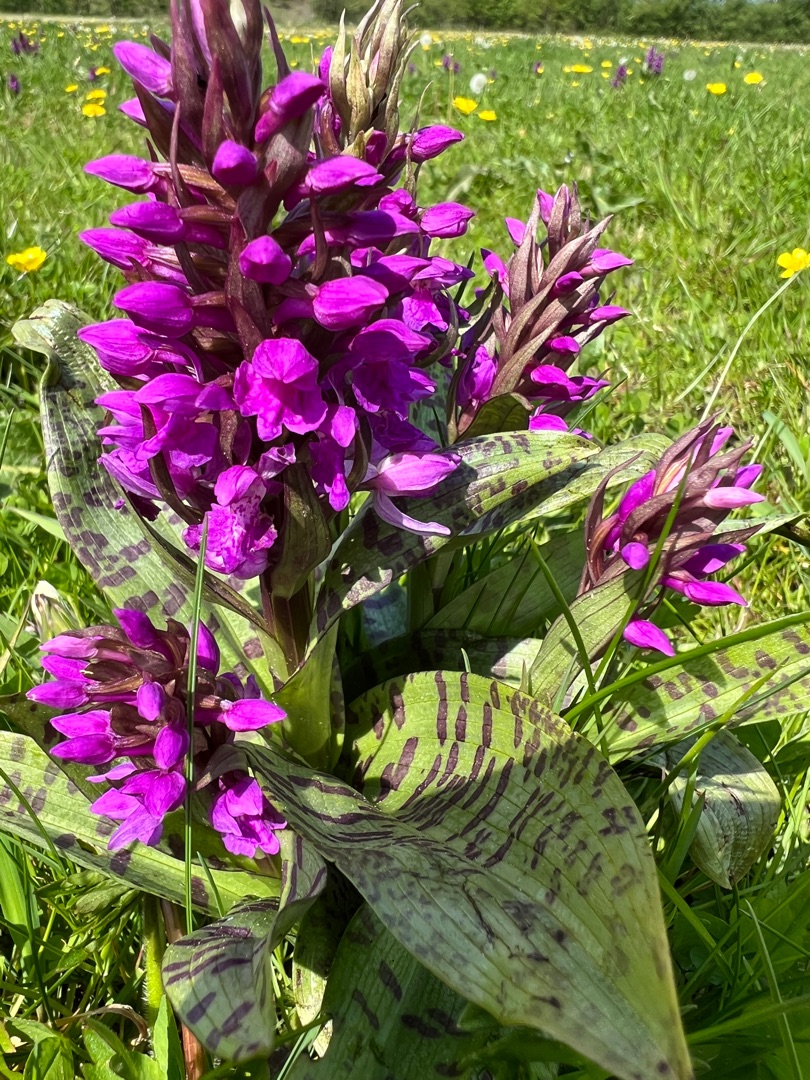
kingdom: Plantae
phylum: Tracheophyta
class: Liliopsida
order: Asparagales
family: Orchidaceae
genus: Dactylorhiza
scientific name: Dactylorhiza majalis
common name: Maj-gøgeurt
